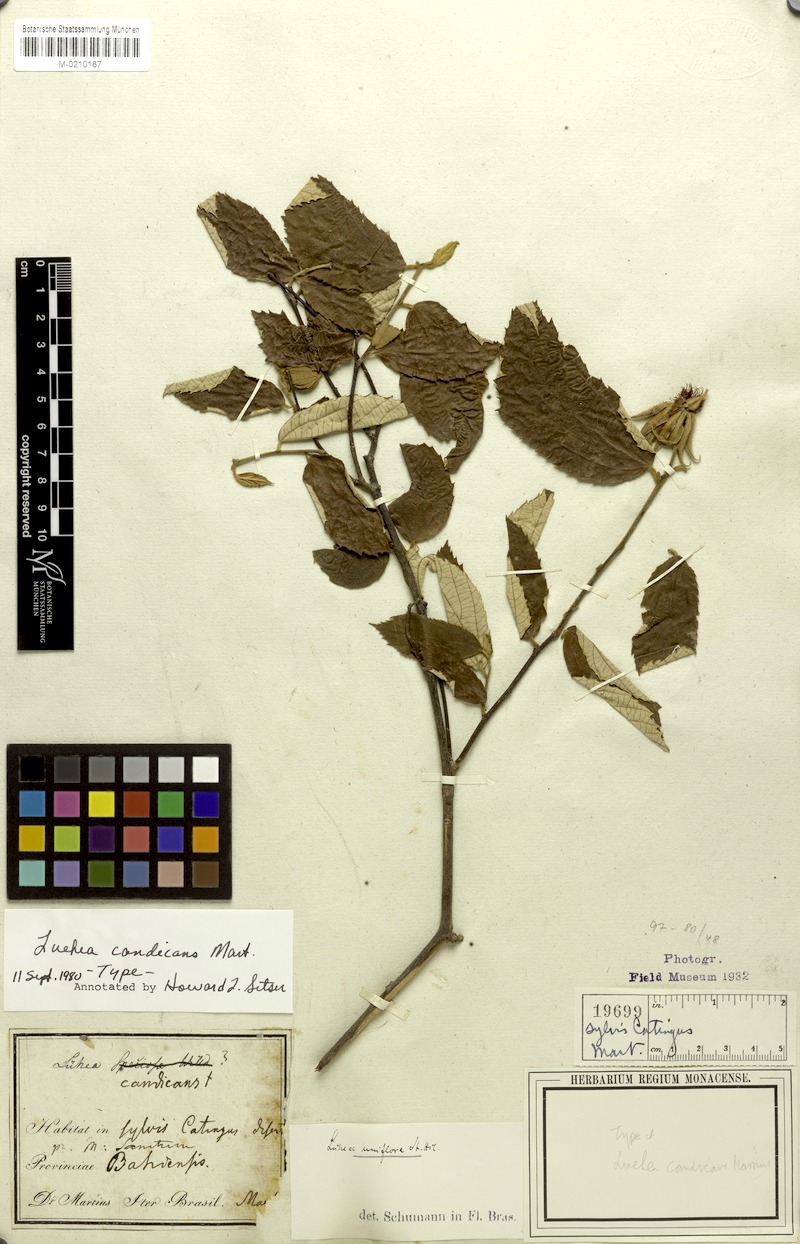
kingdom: Plantae
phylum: Tracheophyta
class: Magnoliopsida
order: Malvales
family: Malvaceae
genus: Luehea
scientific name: Luehea candicans
